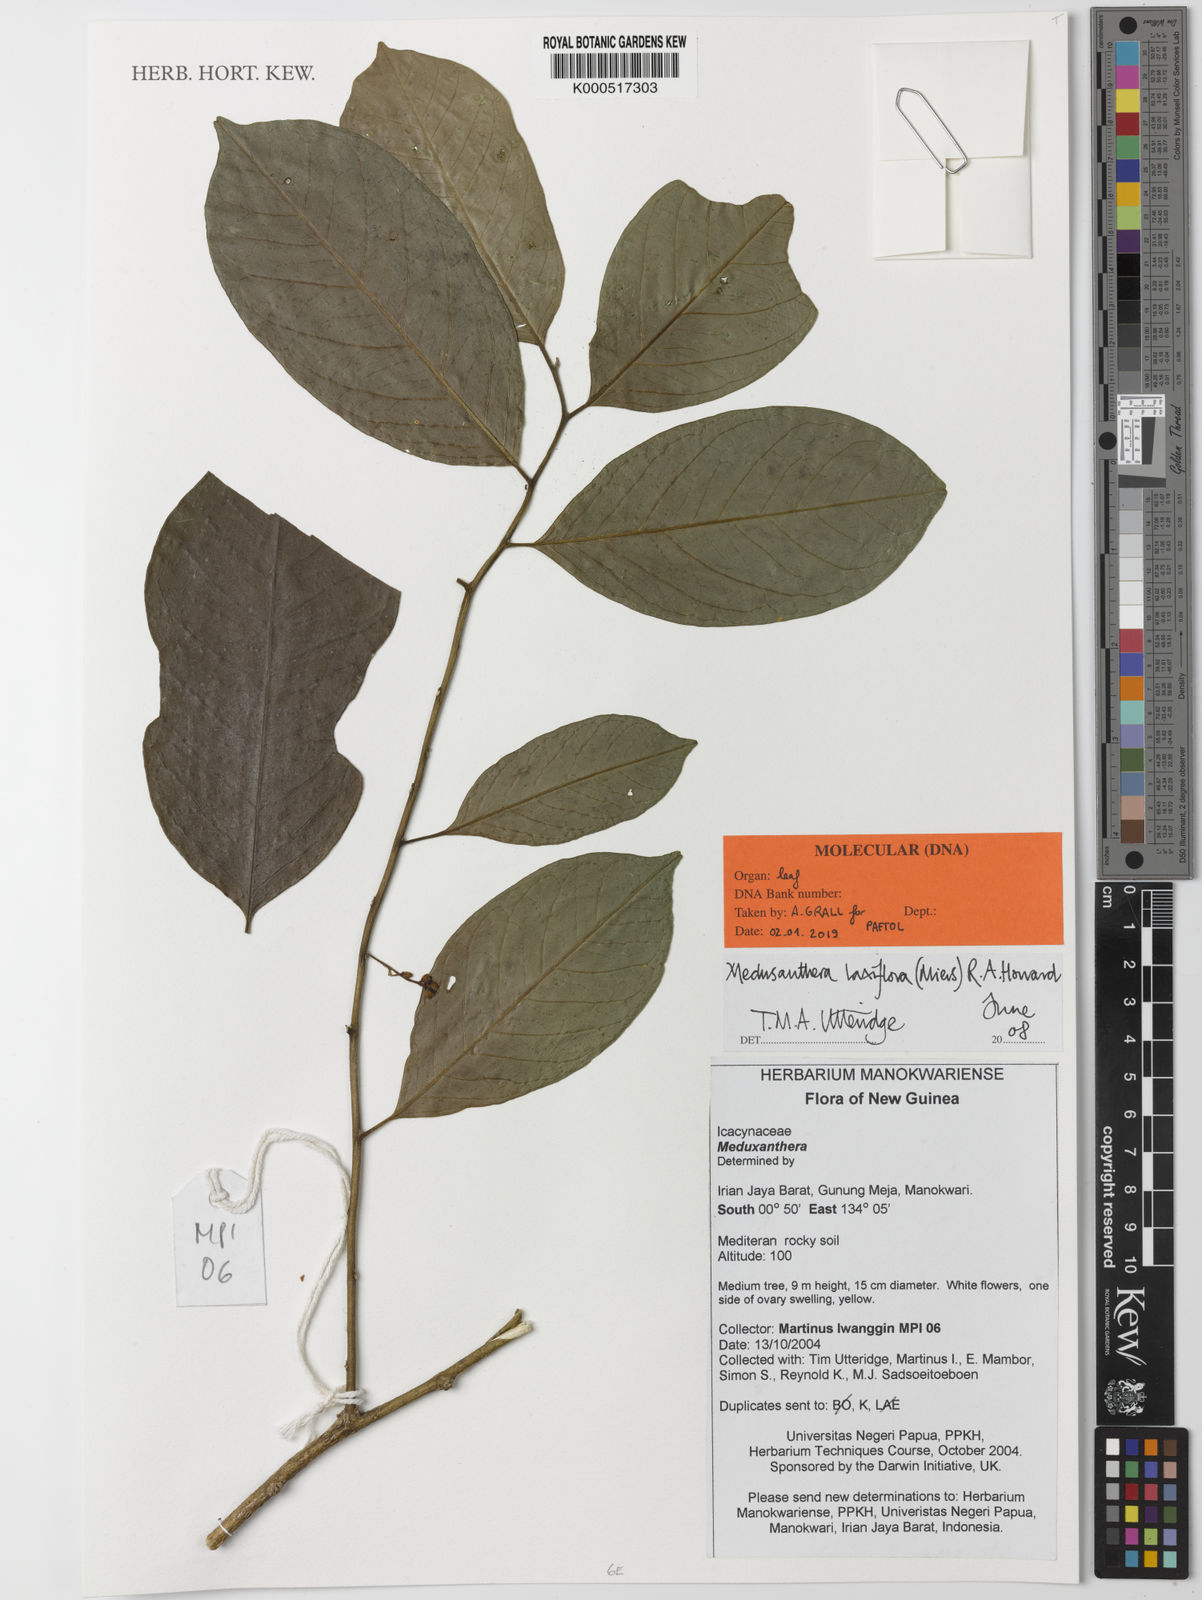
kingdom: Plantae
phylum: Tracheophyta
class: Magnoliopsida
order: Cardiopteridales
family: Stemonuraceae
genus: Medusanthera
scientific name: Medusanthera laxiflora
